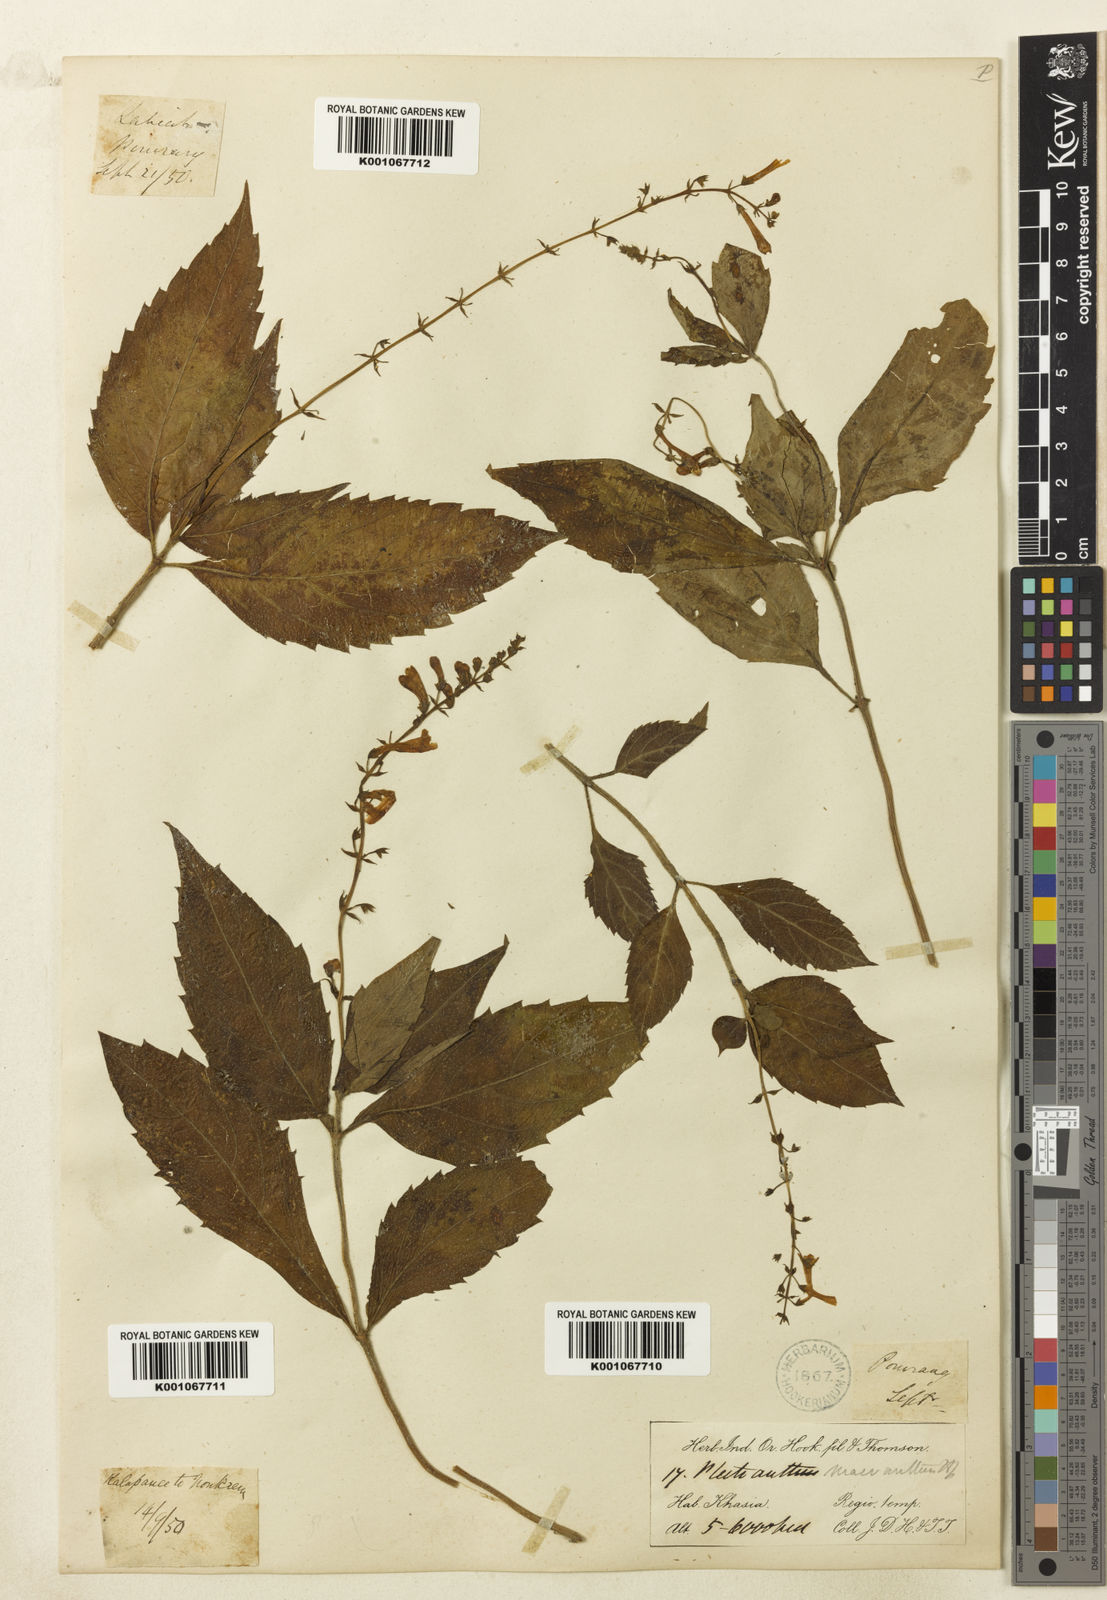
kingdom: Plantae
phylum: Tracheophyta
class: Magnoliopsida
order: Lamiales
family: Lamiaceae
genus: Siphocranion
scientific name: Siphocranion macranthum
